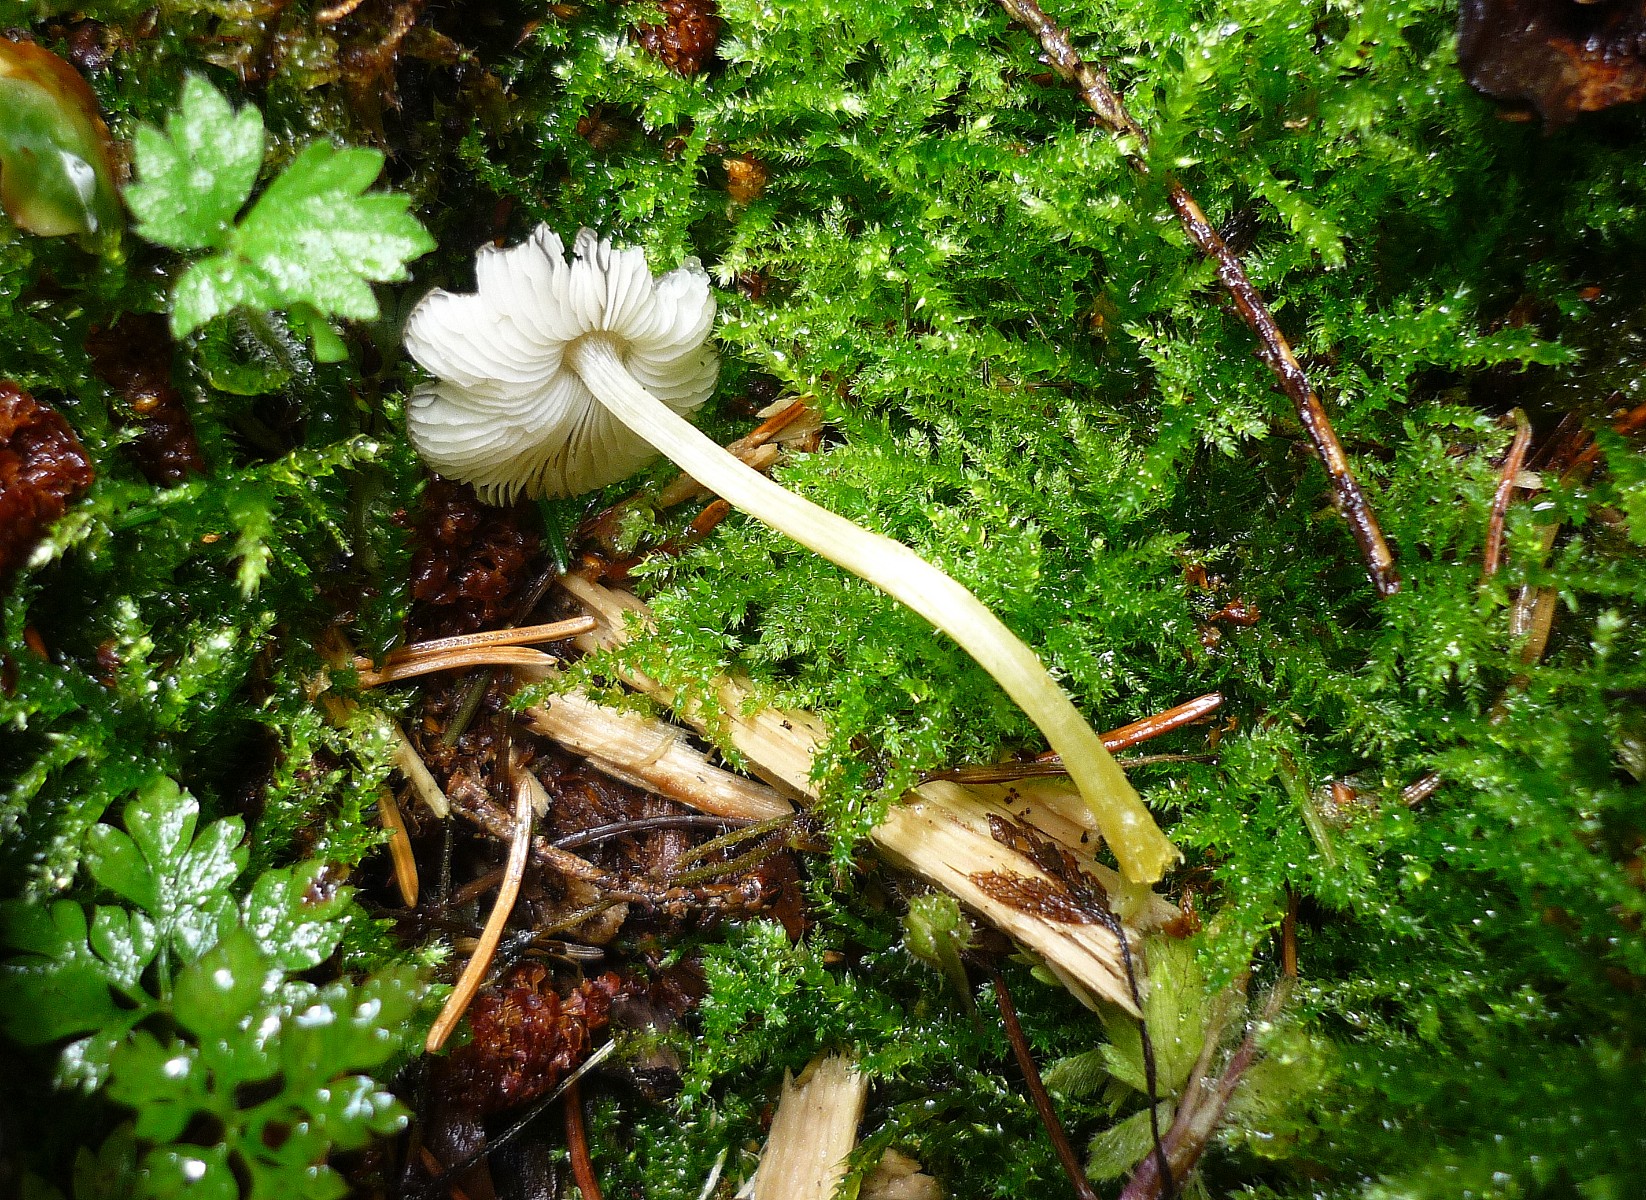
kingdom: Fungi
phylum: Basidiomycota
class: Agaricomycetes
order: Agaricales
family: Pluteaceae
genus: Pluteus
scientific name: Pluteus romellii
